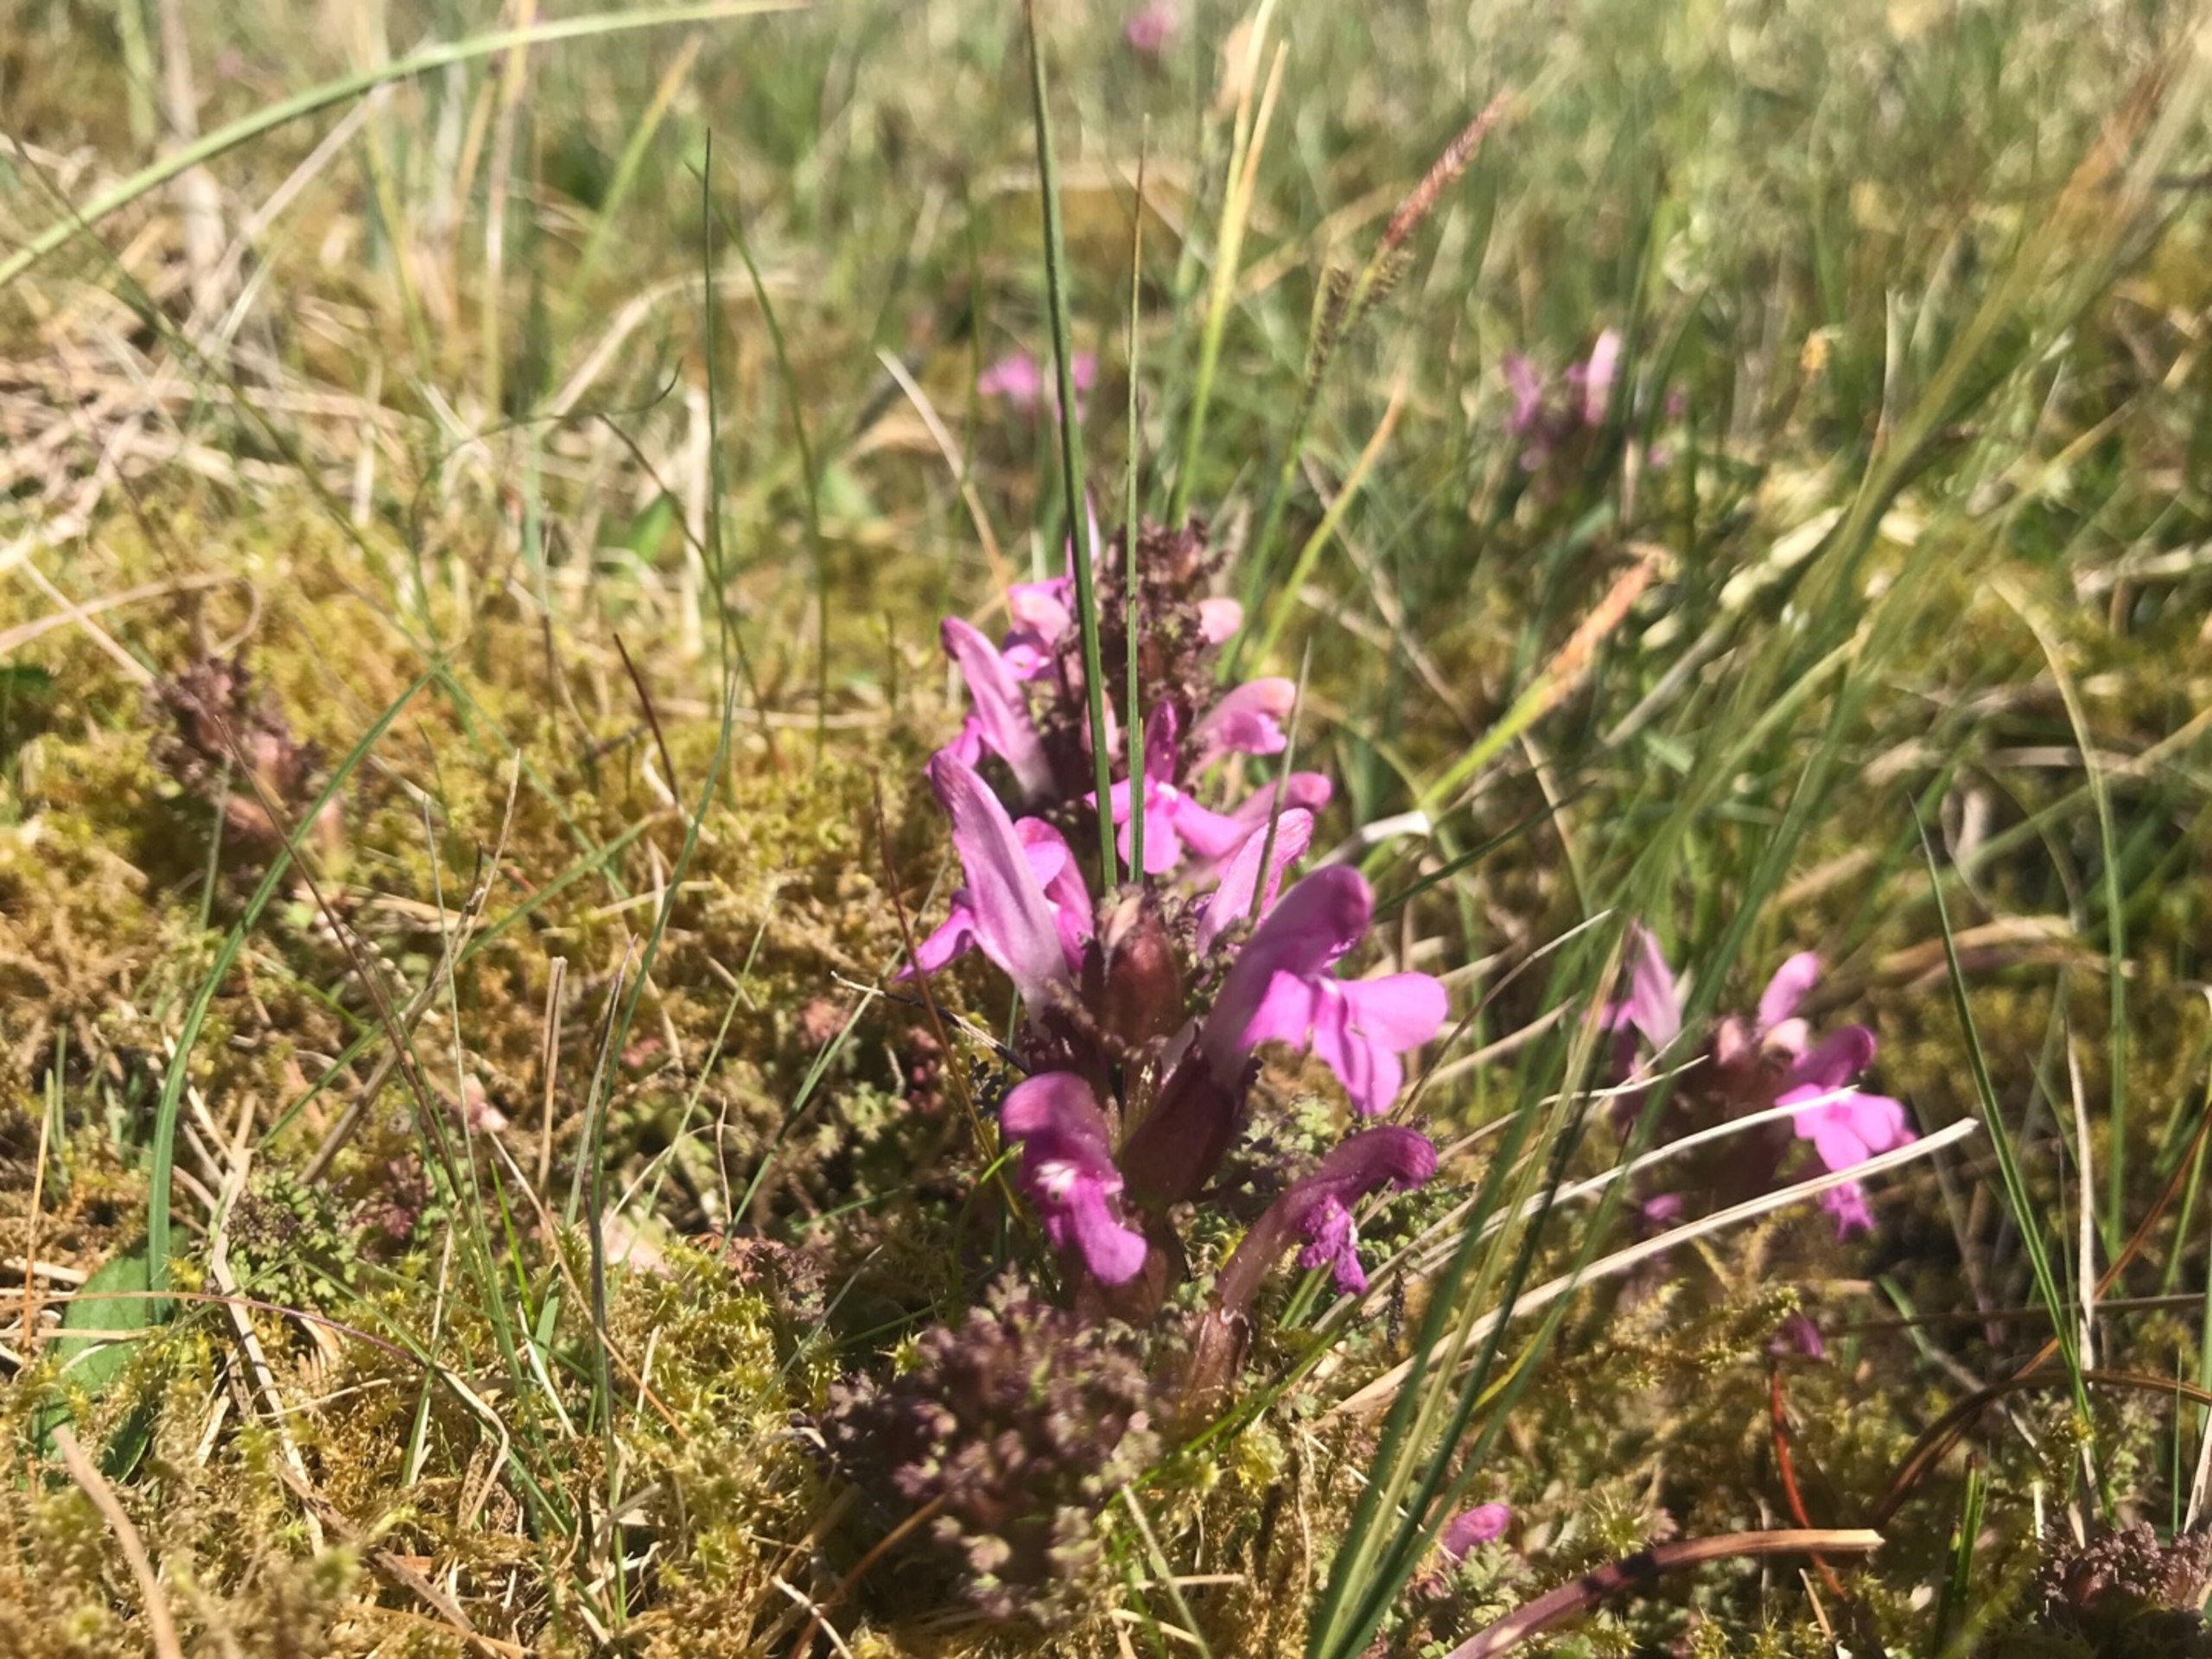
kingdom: Plantae
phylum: Tracheophyta
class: Magnoliopsida
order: Lamiales
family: Orobanchaceae
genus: Pedicularis
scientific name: Pedicularis sylvatica
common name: Mose-troldurt
